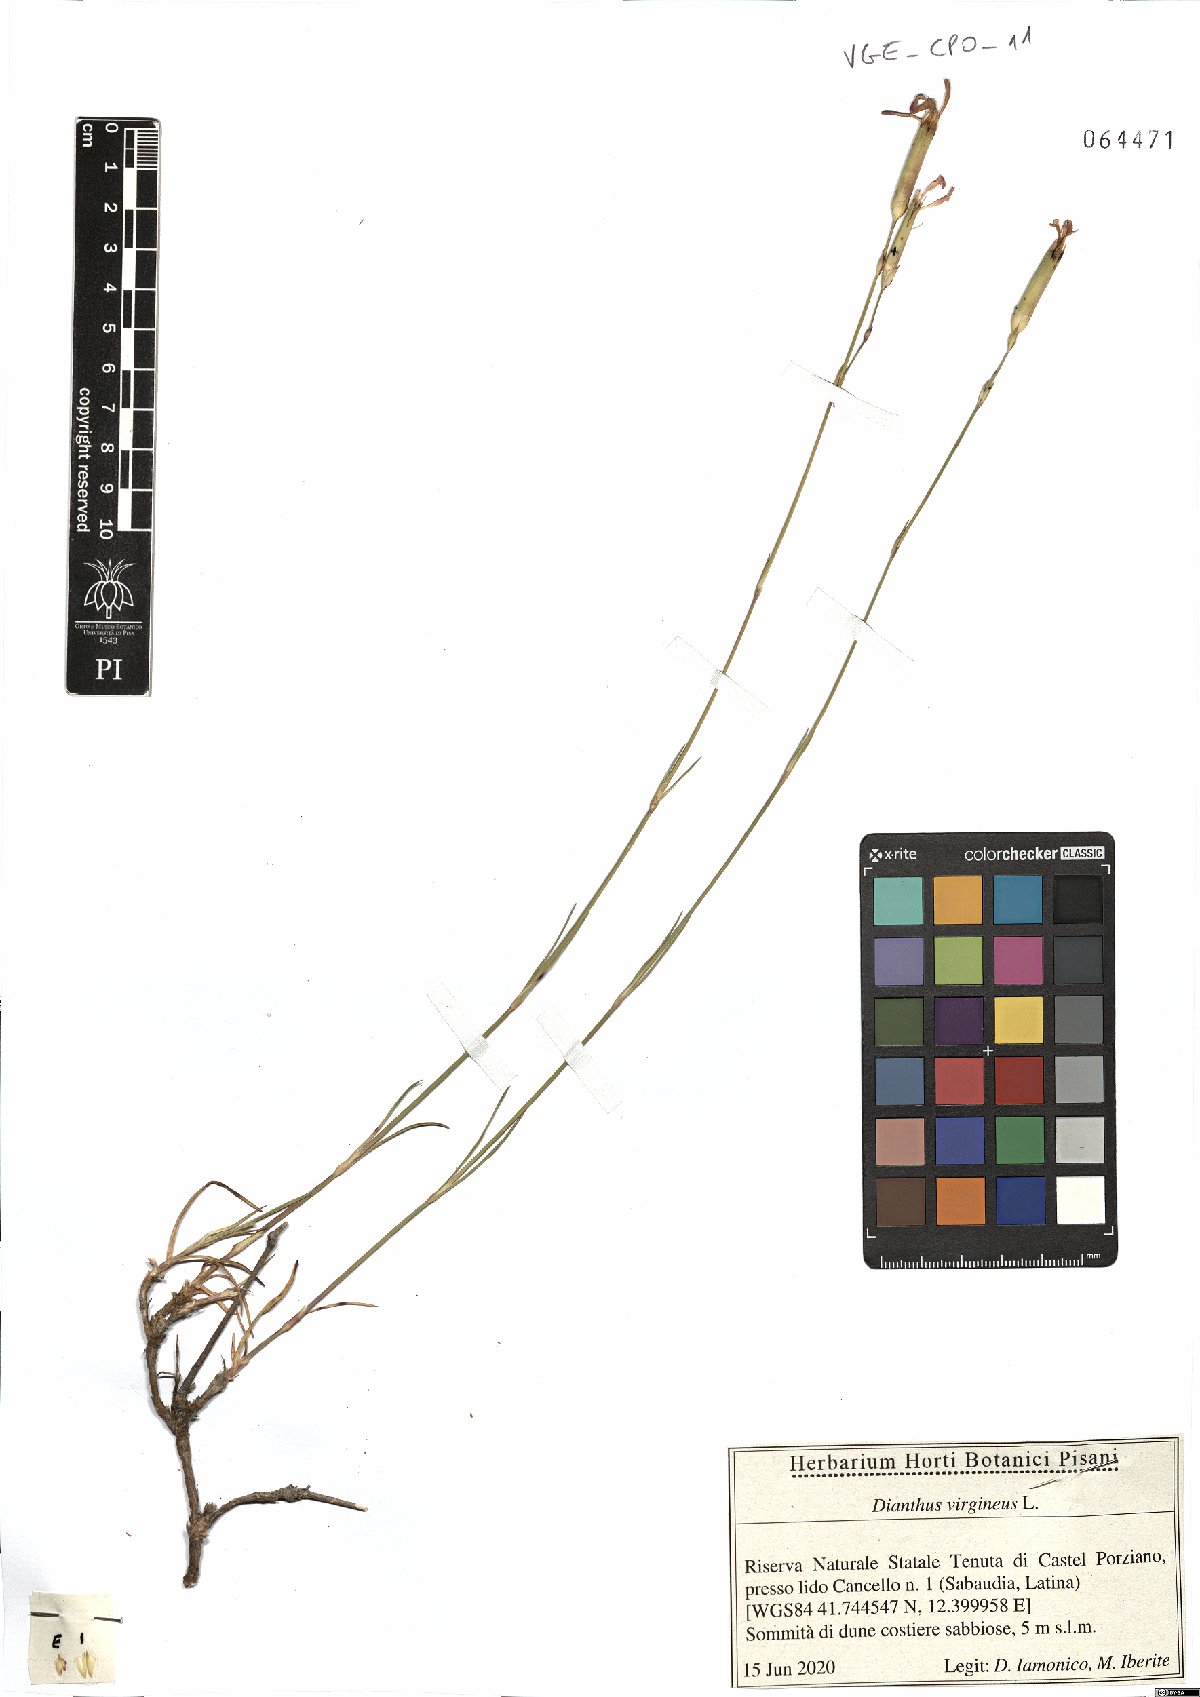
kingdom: Plantae
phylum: Tracheophyta
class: Magnoliopsida
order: Caryophyllales
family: Caryophyllaceae
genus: Dianthus
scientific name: Dianthus virgineus
